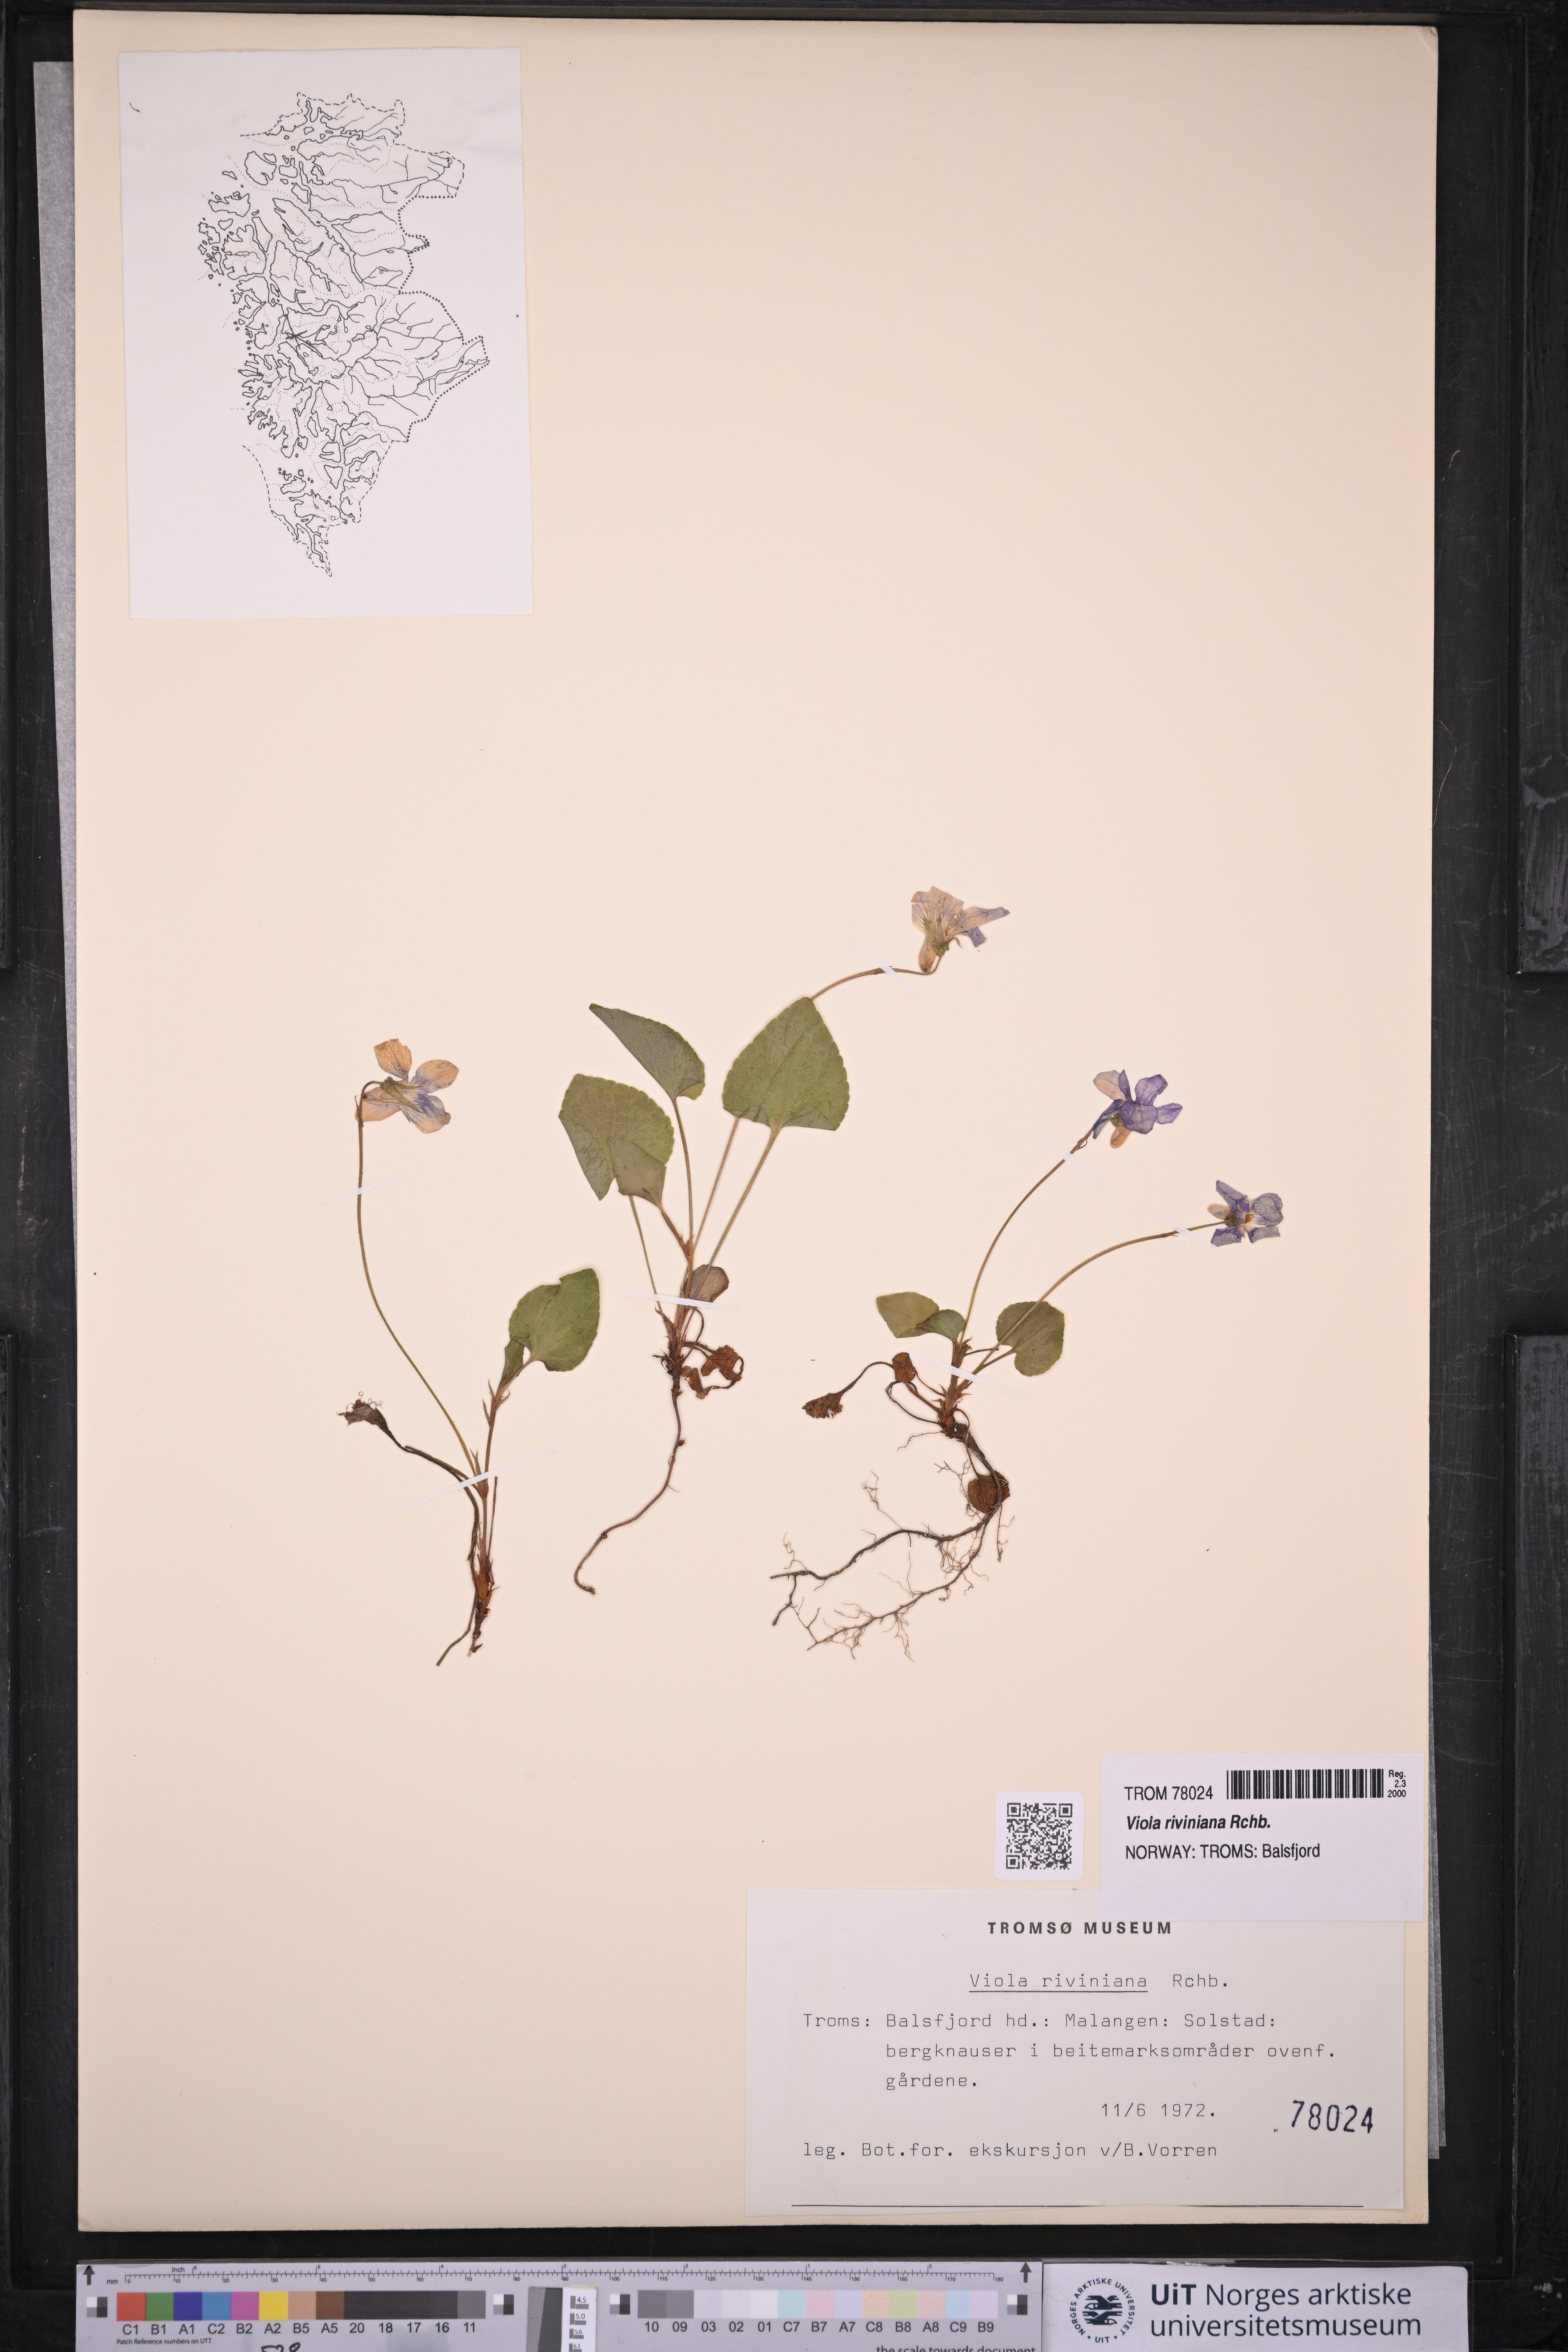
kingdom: Plantae
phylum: Tracheophyta
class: Magnoliopsida
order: Malpighiales
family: Violaceae
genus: Viola
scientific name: Viola riviniana
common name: Common dog-violet
